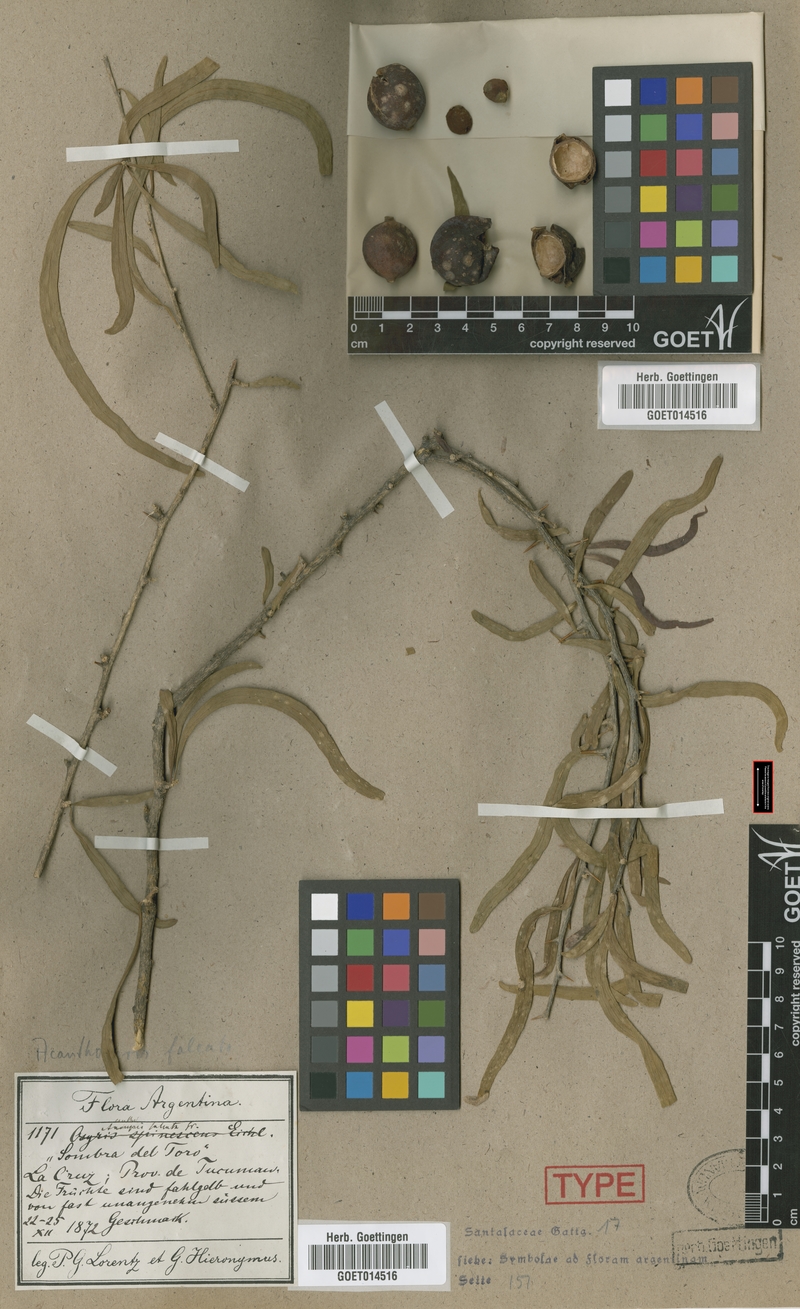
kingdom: Plantae
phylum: Tracheophyta
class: Magnoliopsida
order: Santalales
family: Cervantesiaceae
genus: Acanthosyris
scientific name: Acanthosyris falcata
